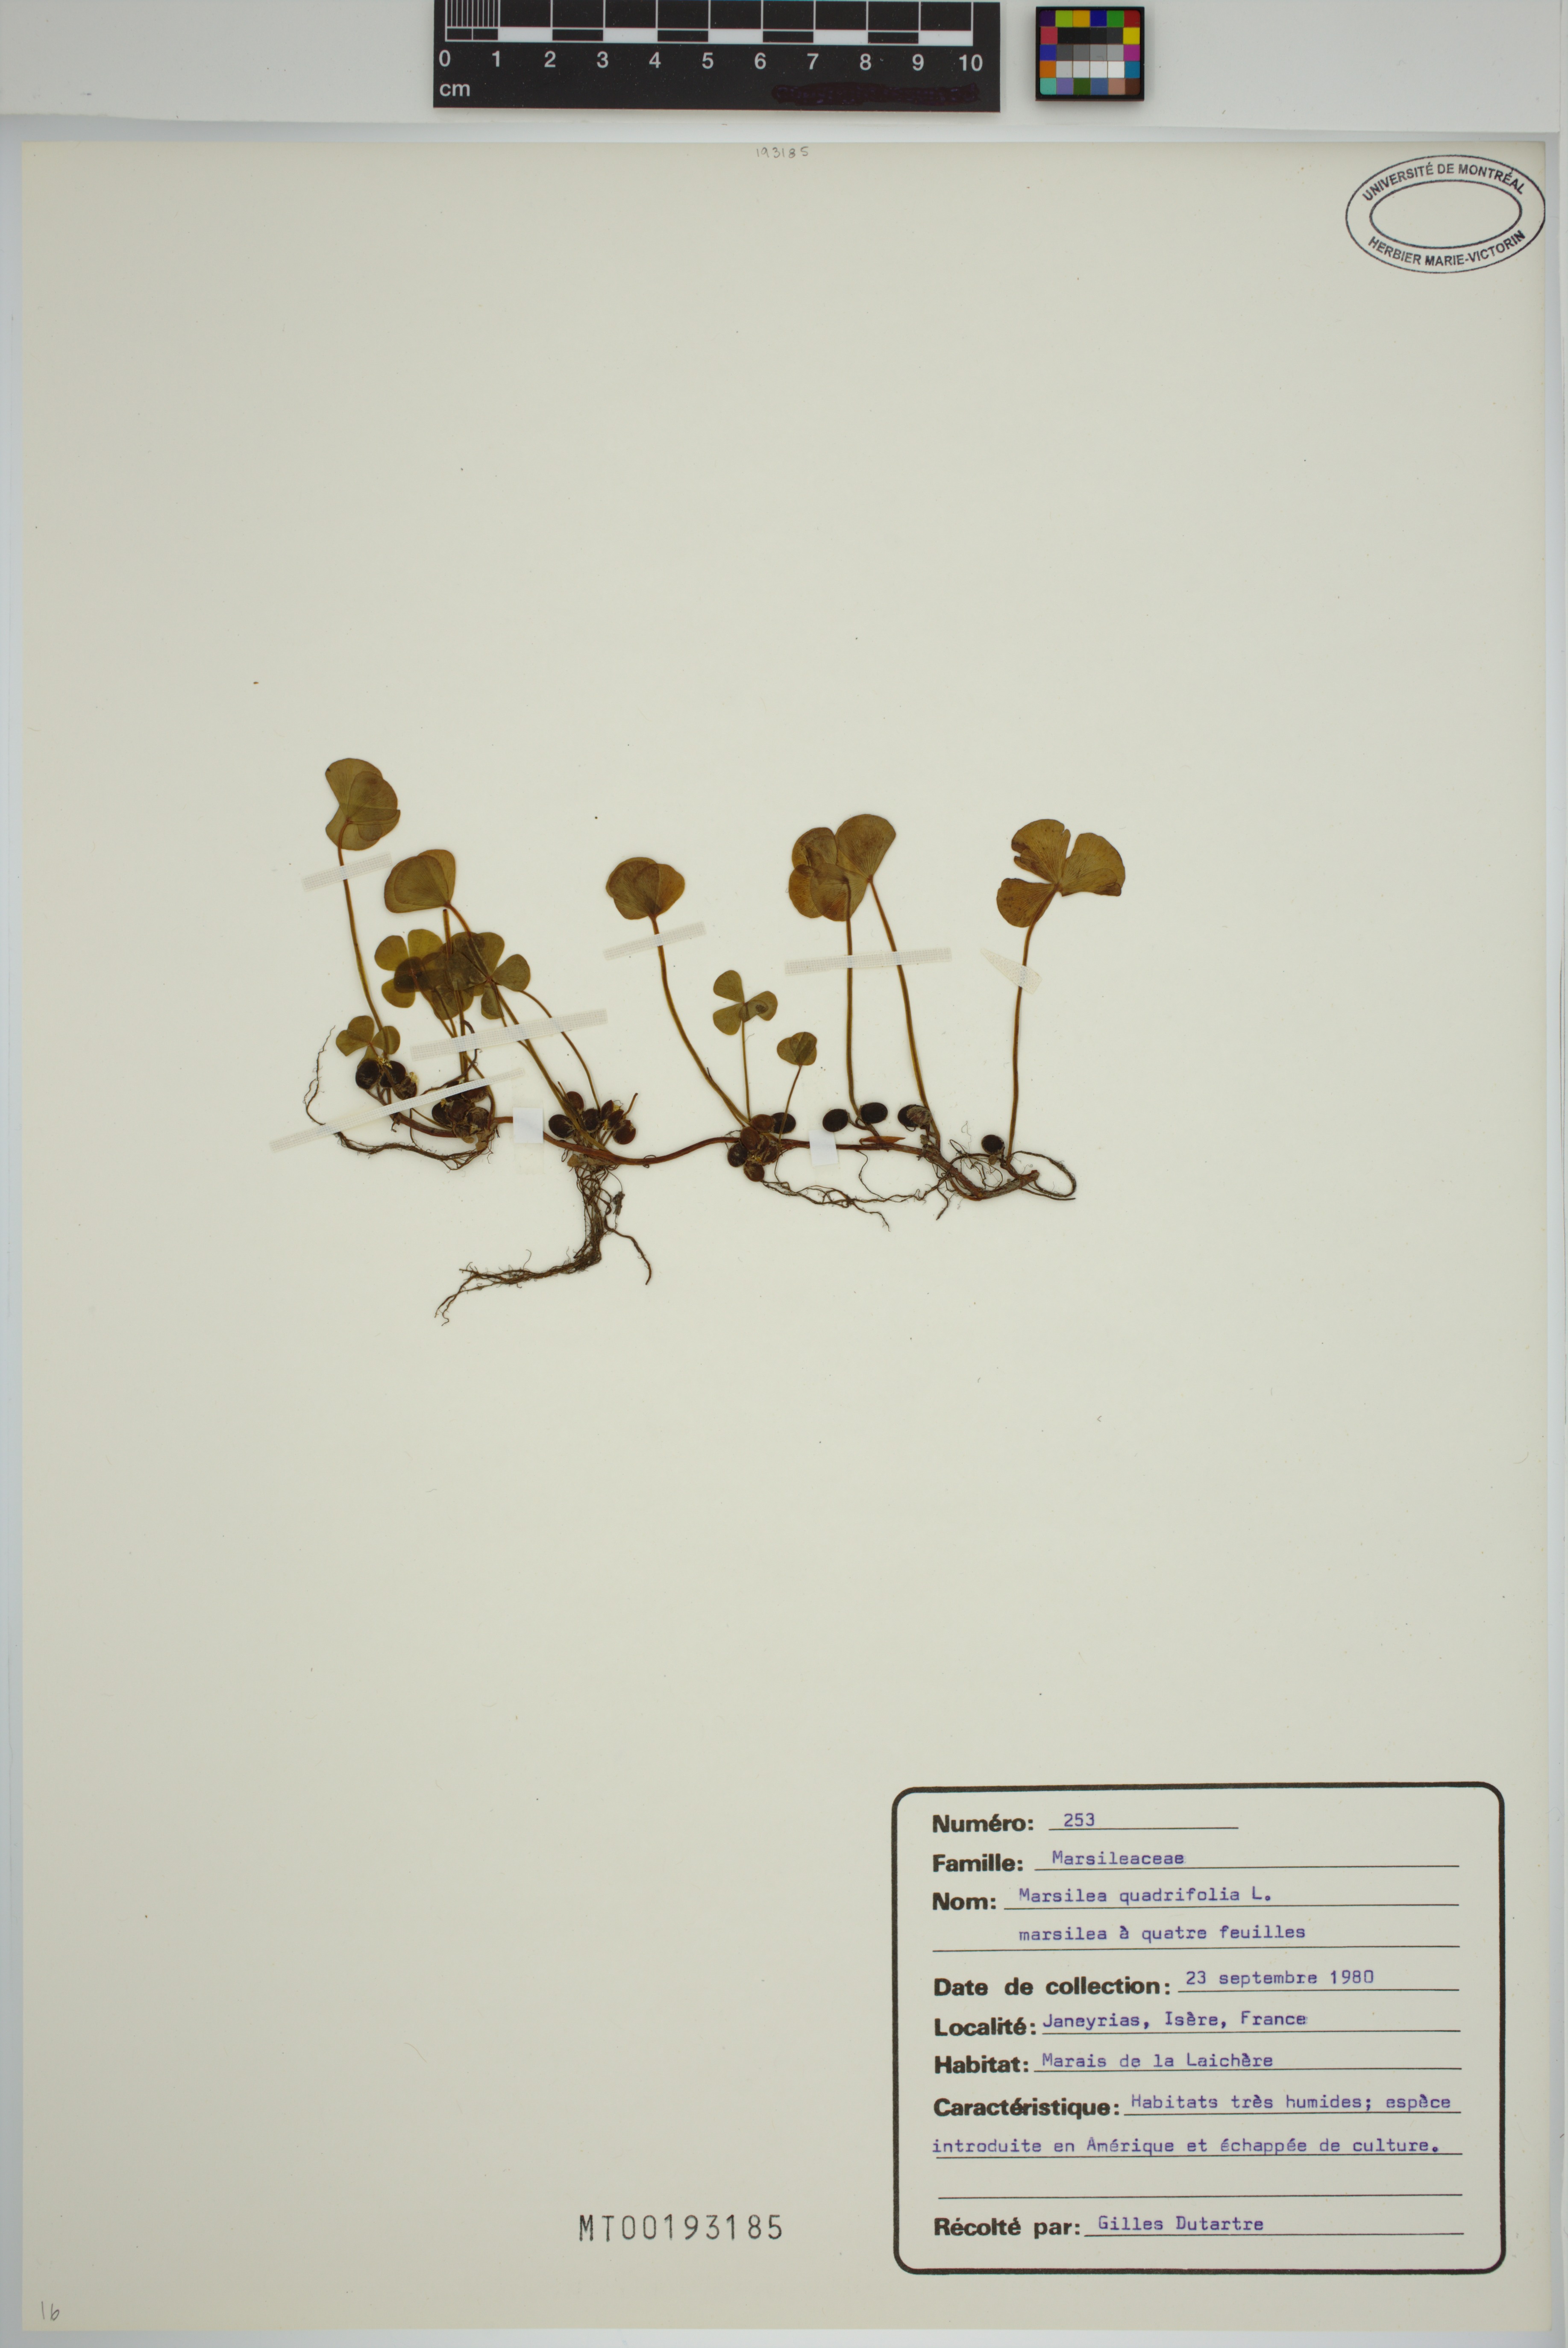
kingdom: Plantae
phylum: Tracheophyta
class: Polypodiopsida
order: Salviniales
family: Marsileaceae
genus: Marsilea
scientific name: Marsilea quadrifolia
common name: Water shamrock
